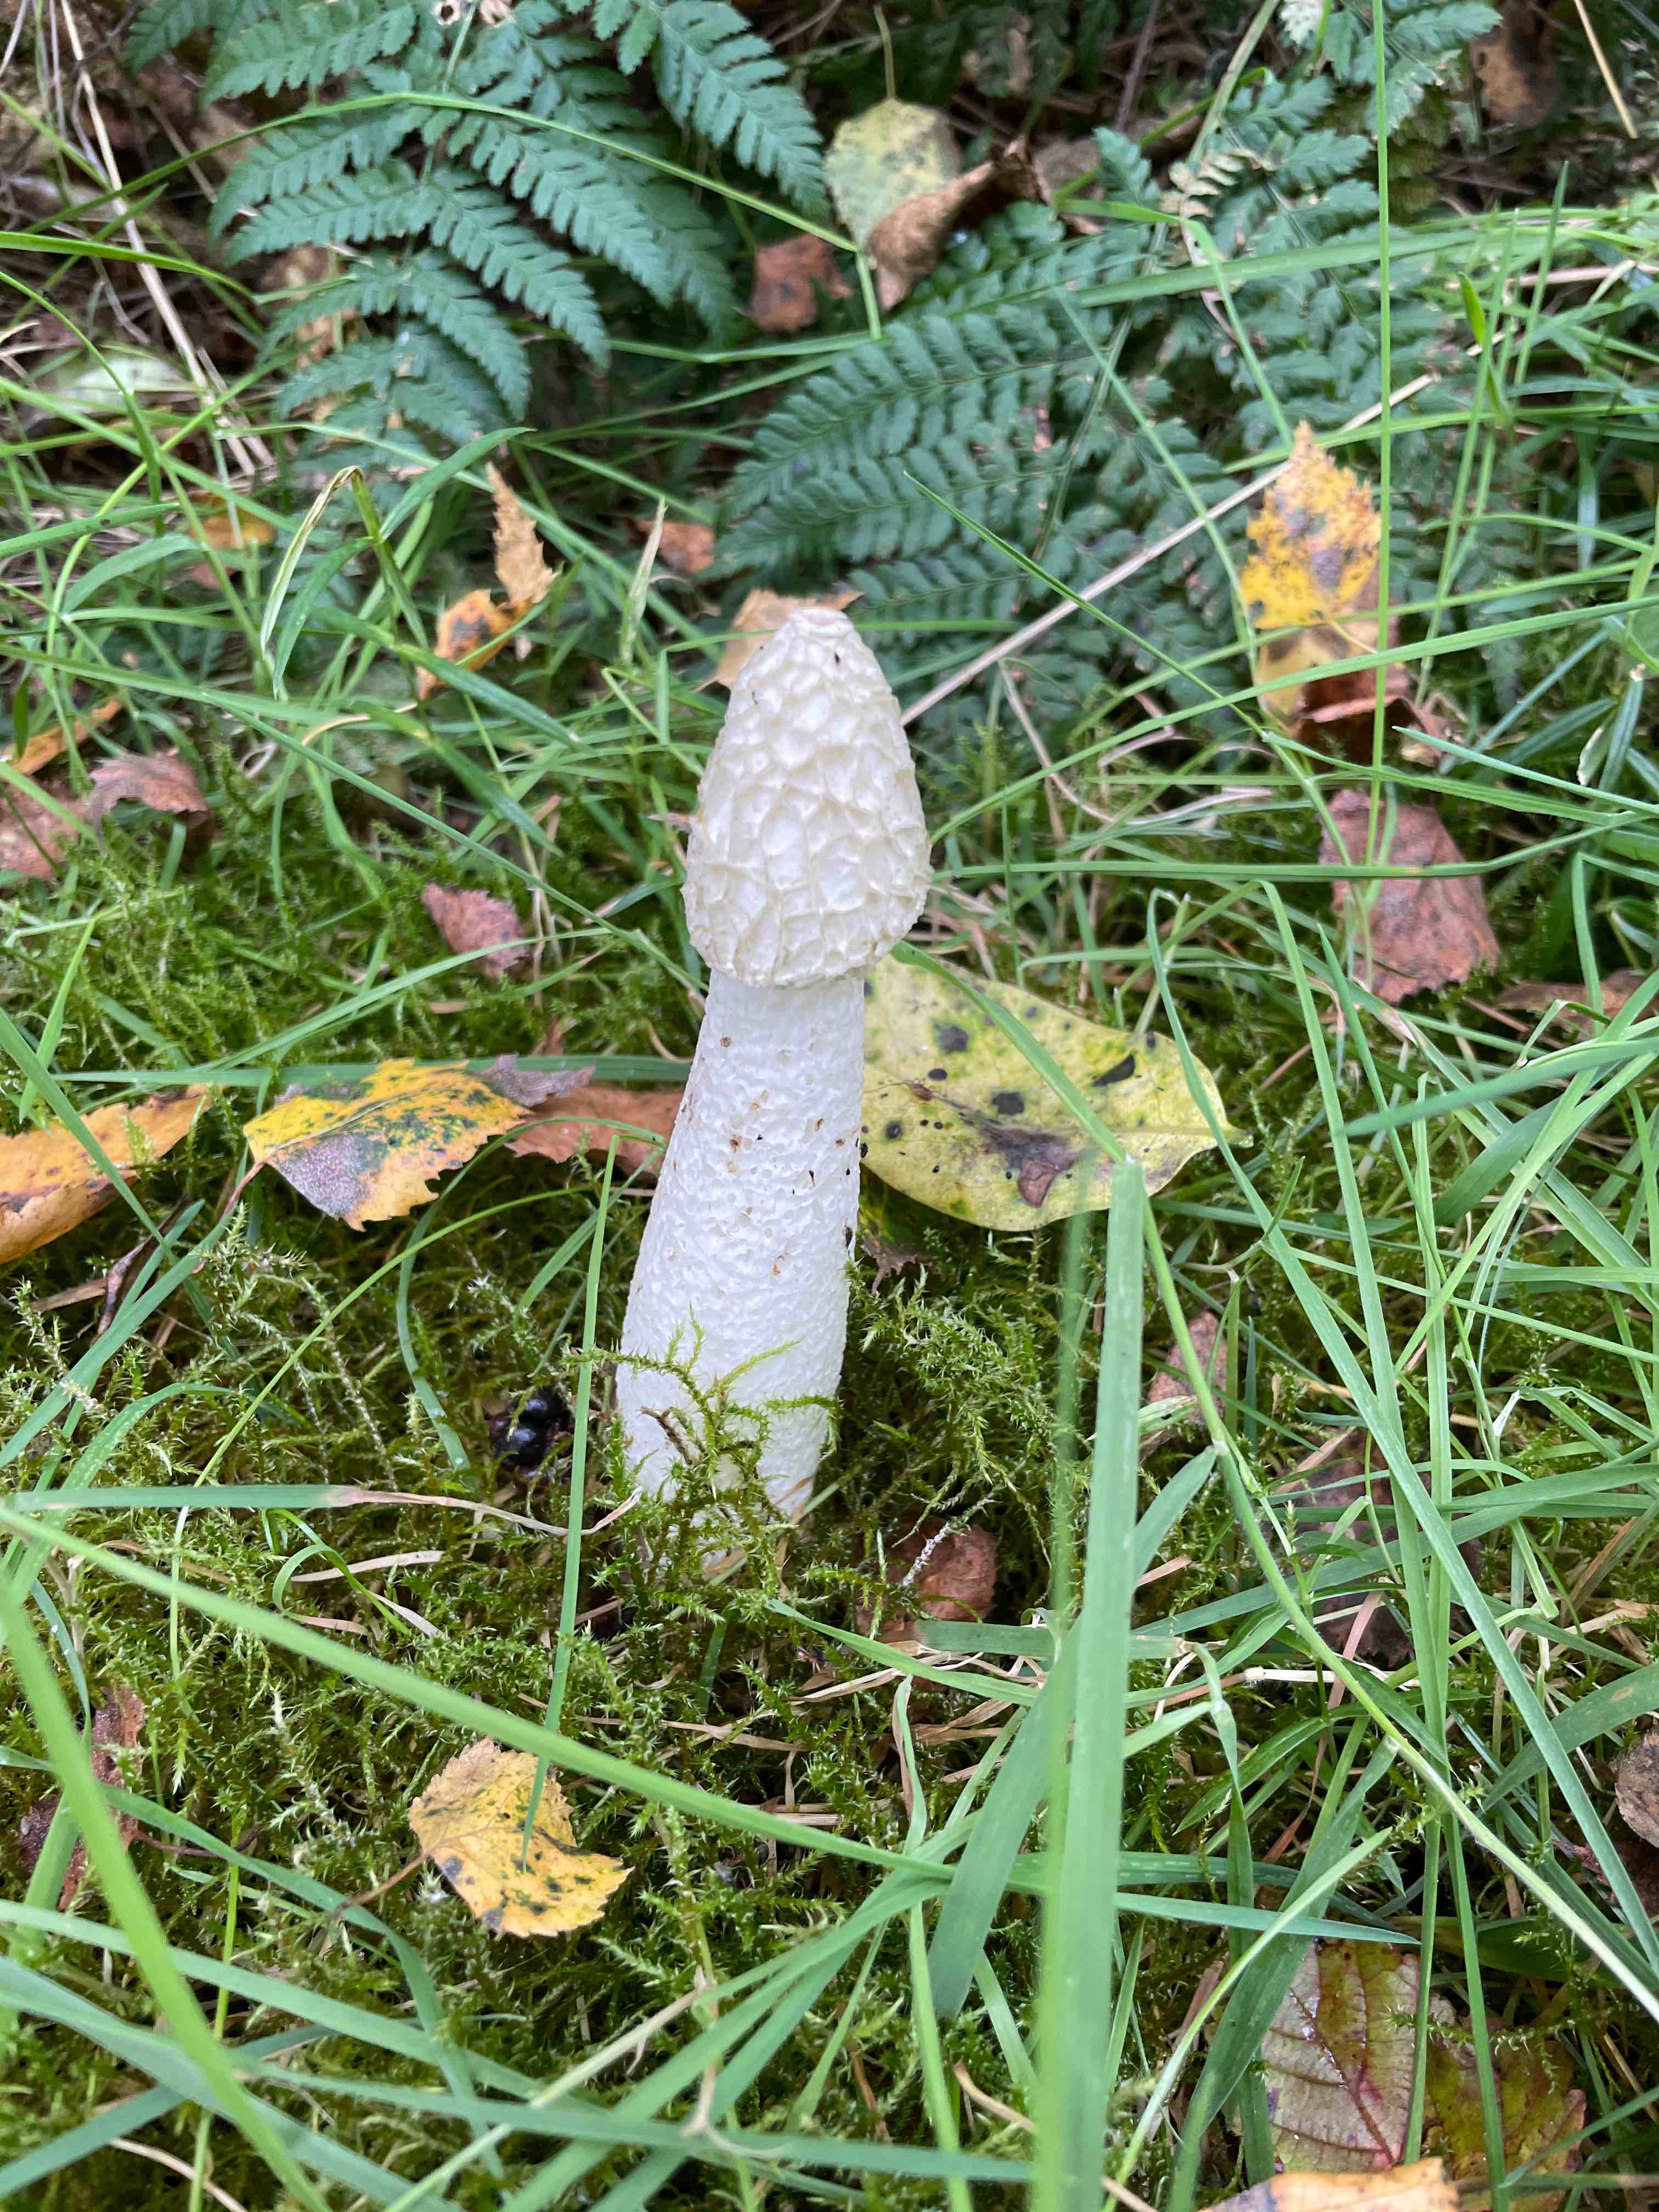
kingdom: Fungi
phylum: Basidiomycota
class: Agaricomycetes
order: Phallales
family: Phallaceae
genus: Phallus
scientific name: Phallus impudicus
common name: almindelig stinksvamp
